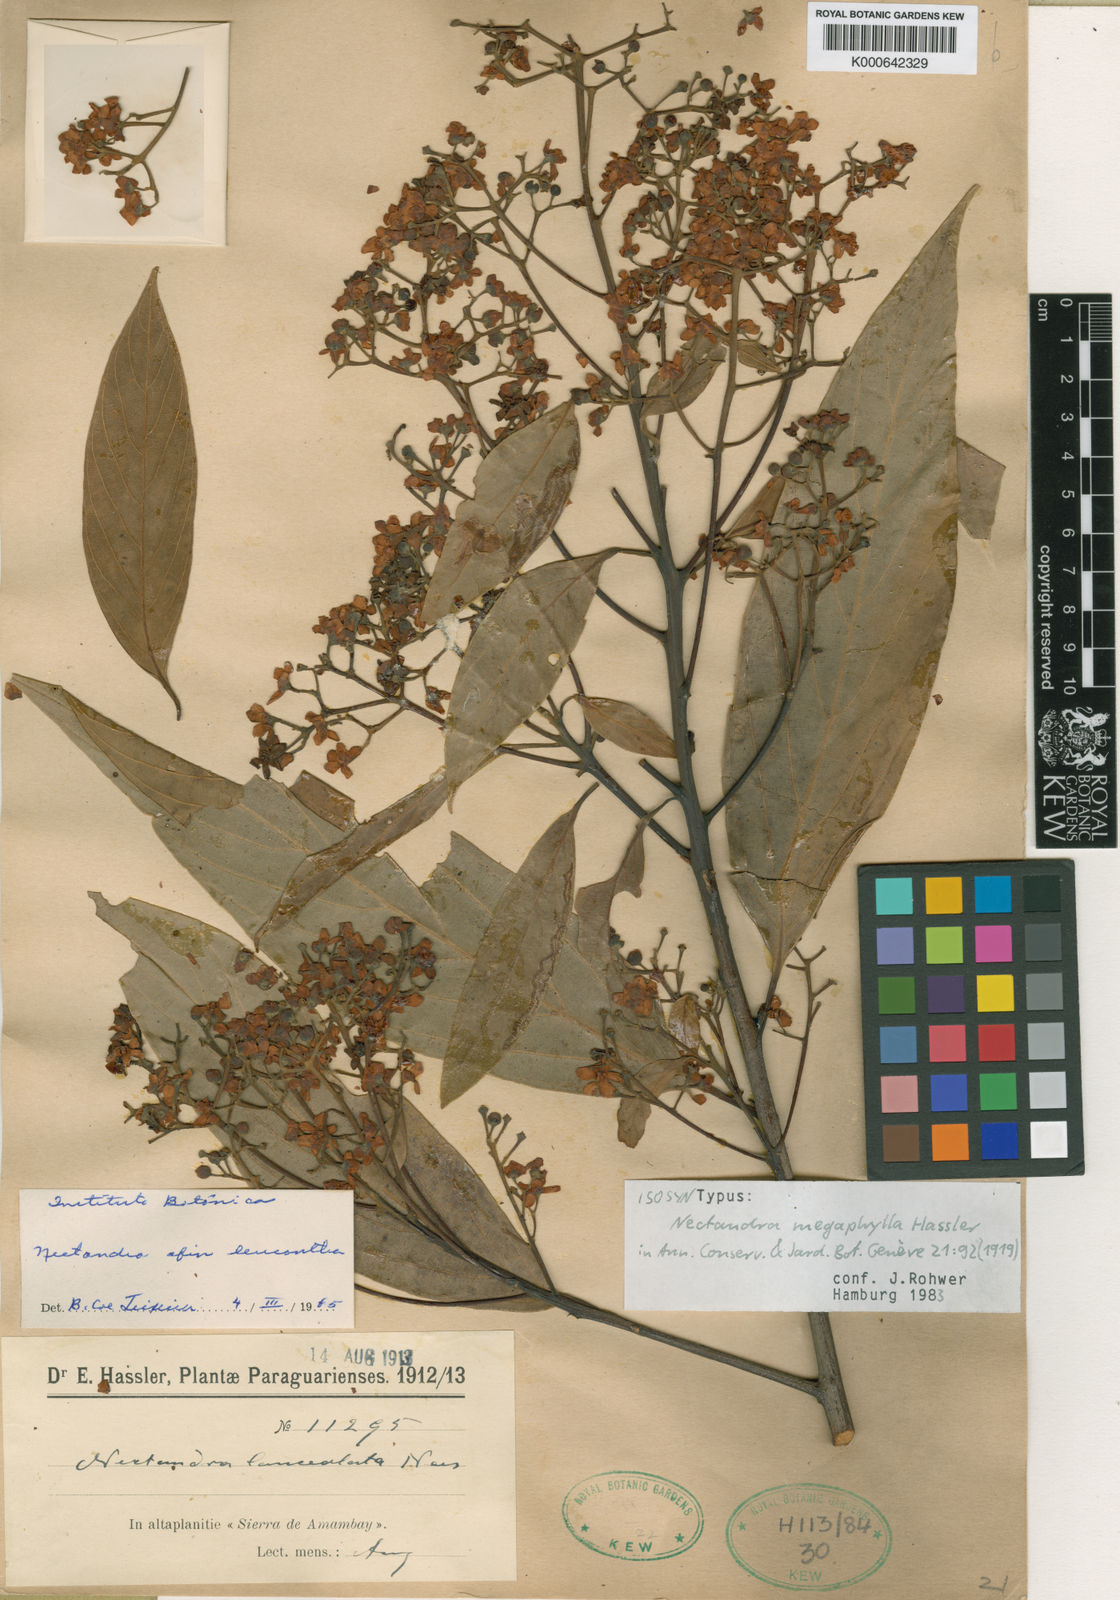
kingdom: Plantae
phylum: Tracheophyta
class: Magnoliopsida
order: Laurales
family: Lauraceae
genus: Nectandra
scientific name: Nectandra hihua
